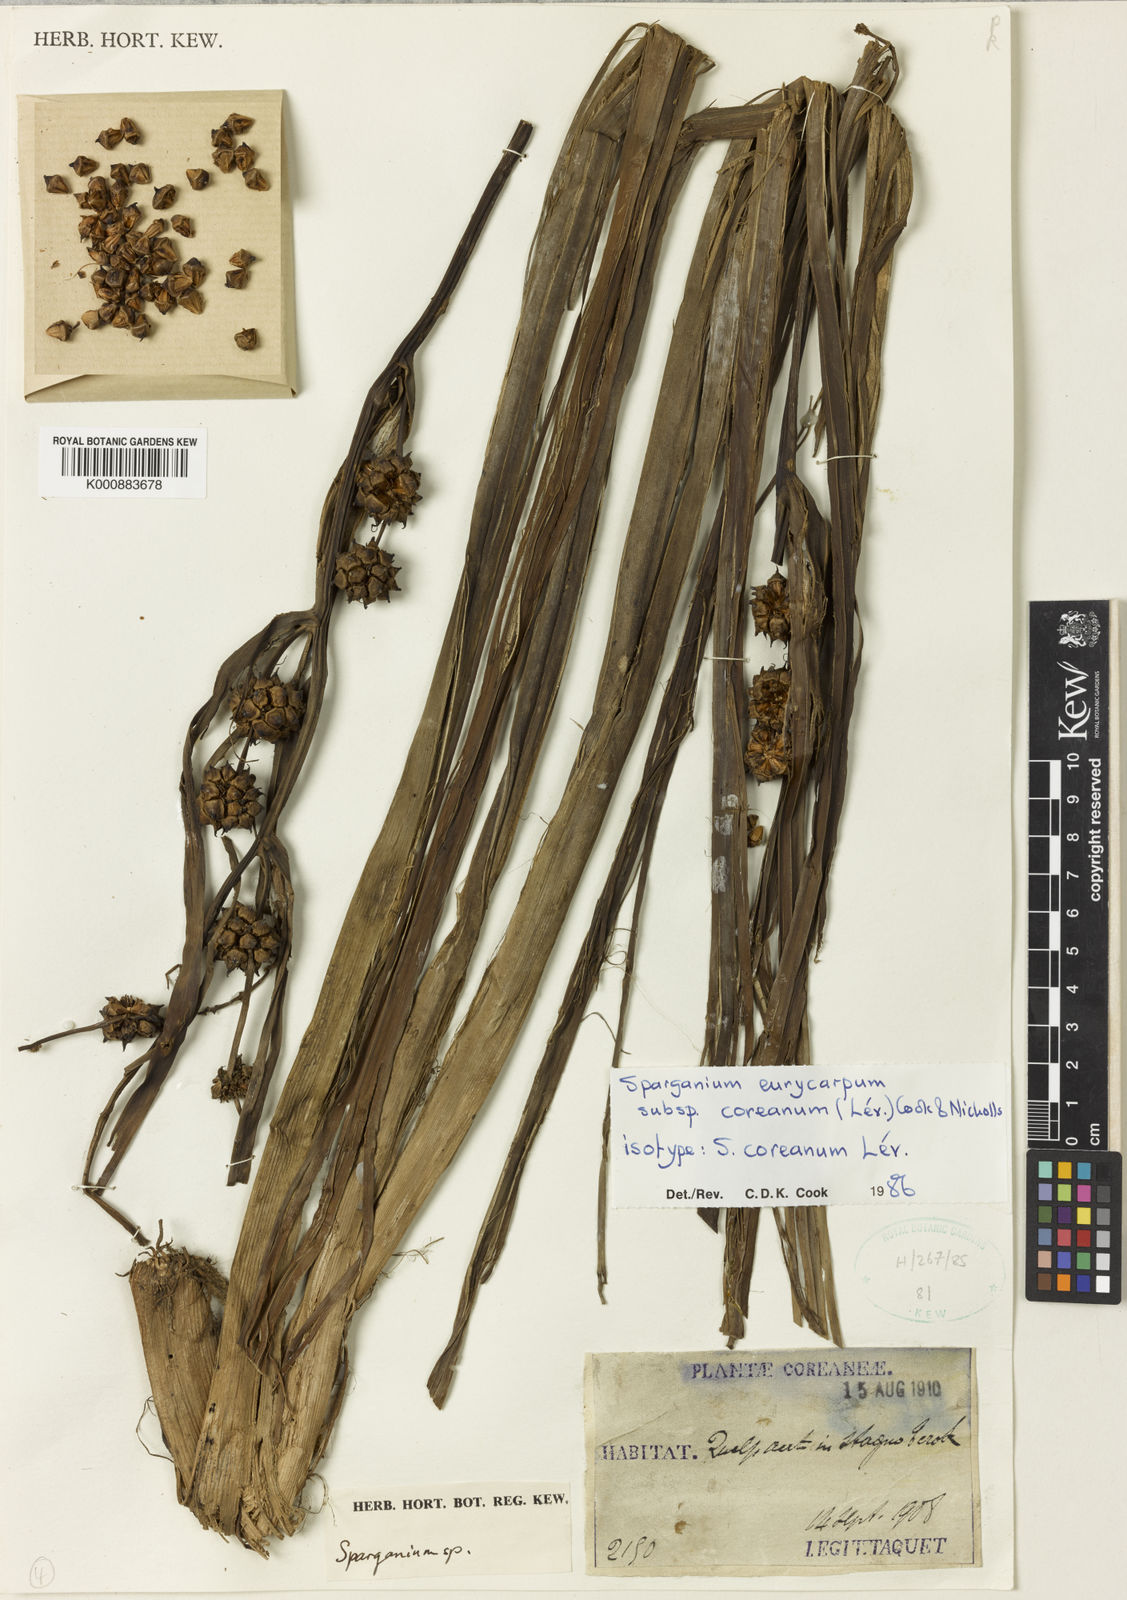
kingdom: Plantae
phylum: Tracheophyta
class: Liliopsida
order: Poales
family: Typhaceae
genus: Sparganium
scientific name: Sparganium eurycarpum
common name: Broad-fruited burreed
